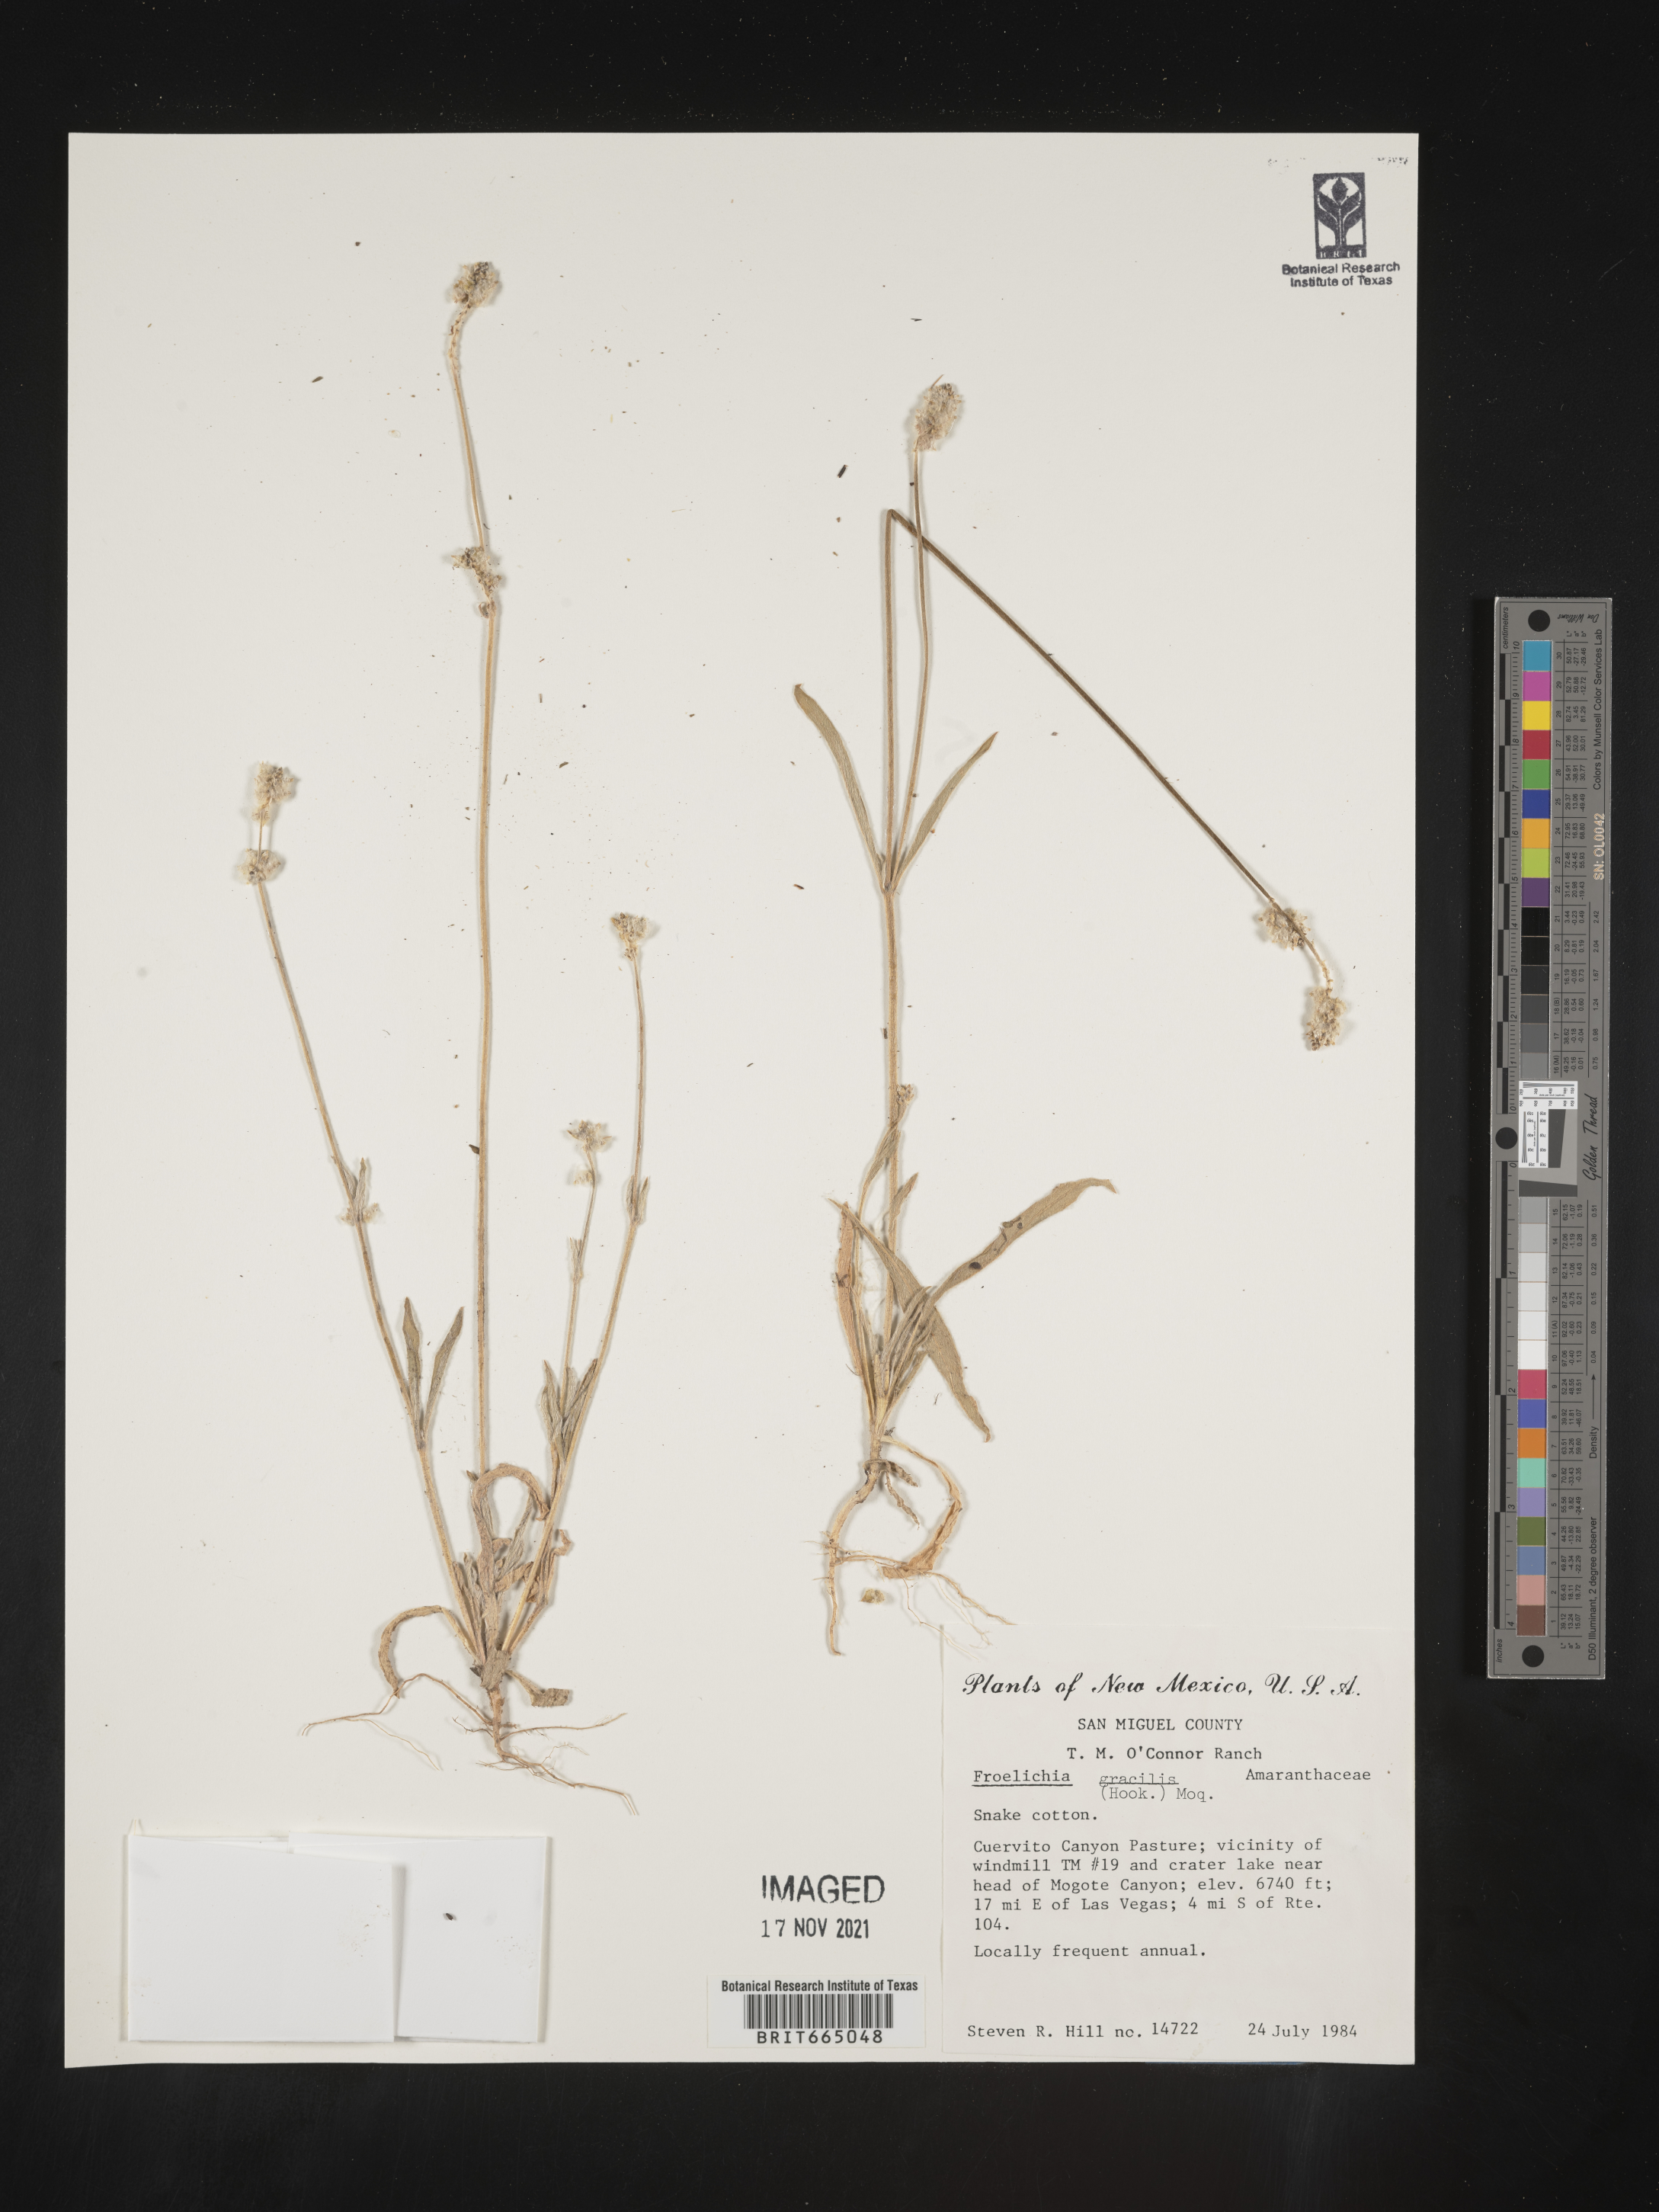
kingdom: Plantae
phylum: Tracheophyta
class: Magnoliopsida
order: Caryophyllales
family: Amaranthaceae
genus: Froelichia
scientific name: Froelichia gracilis
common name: Slender cottonweed
